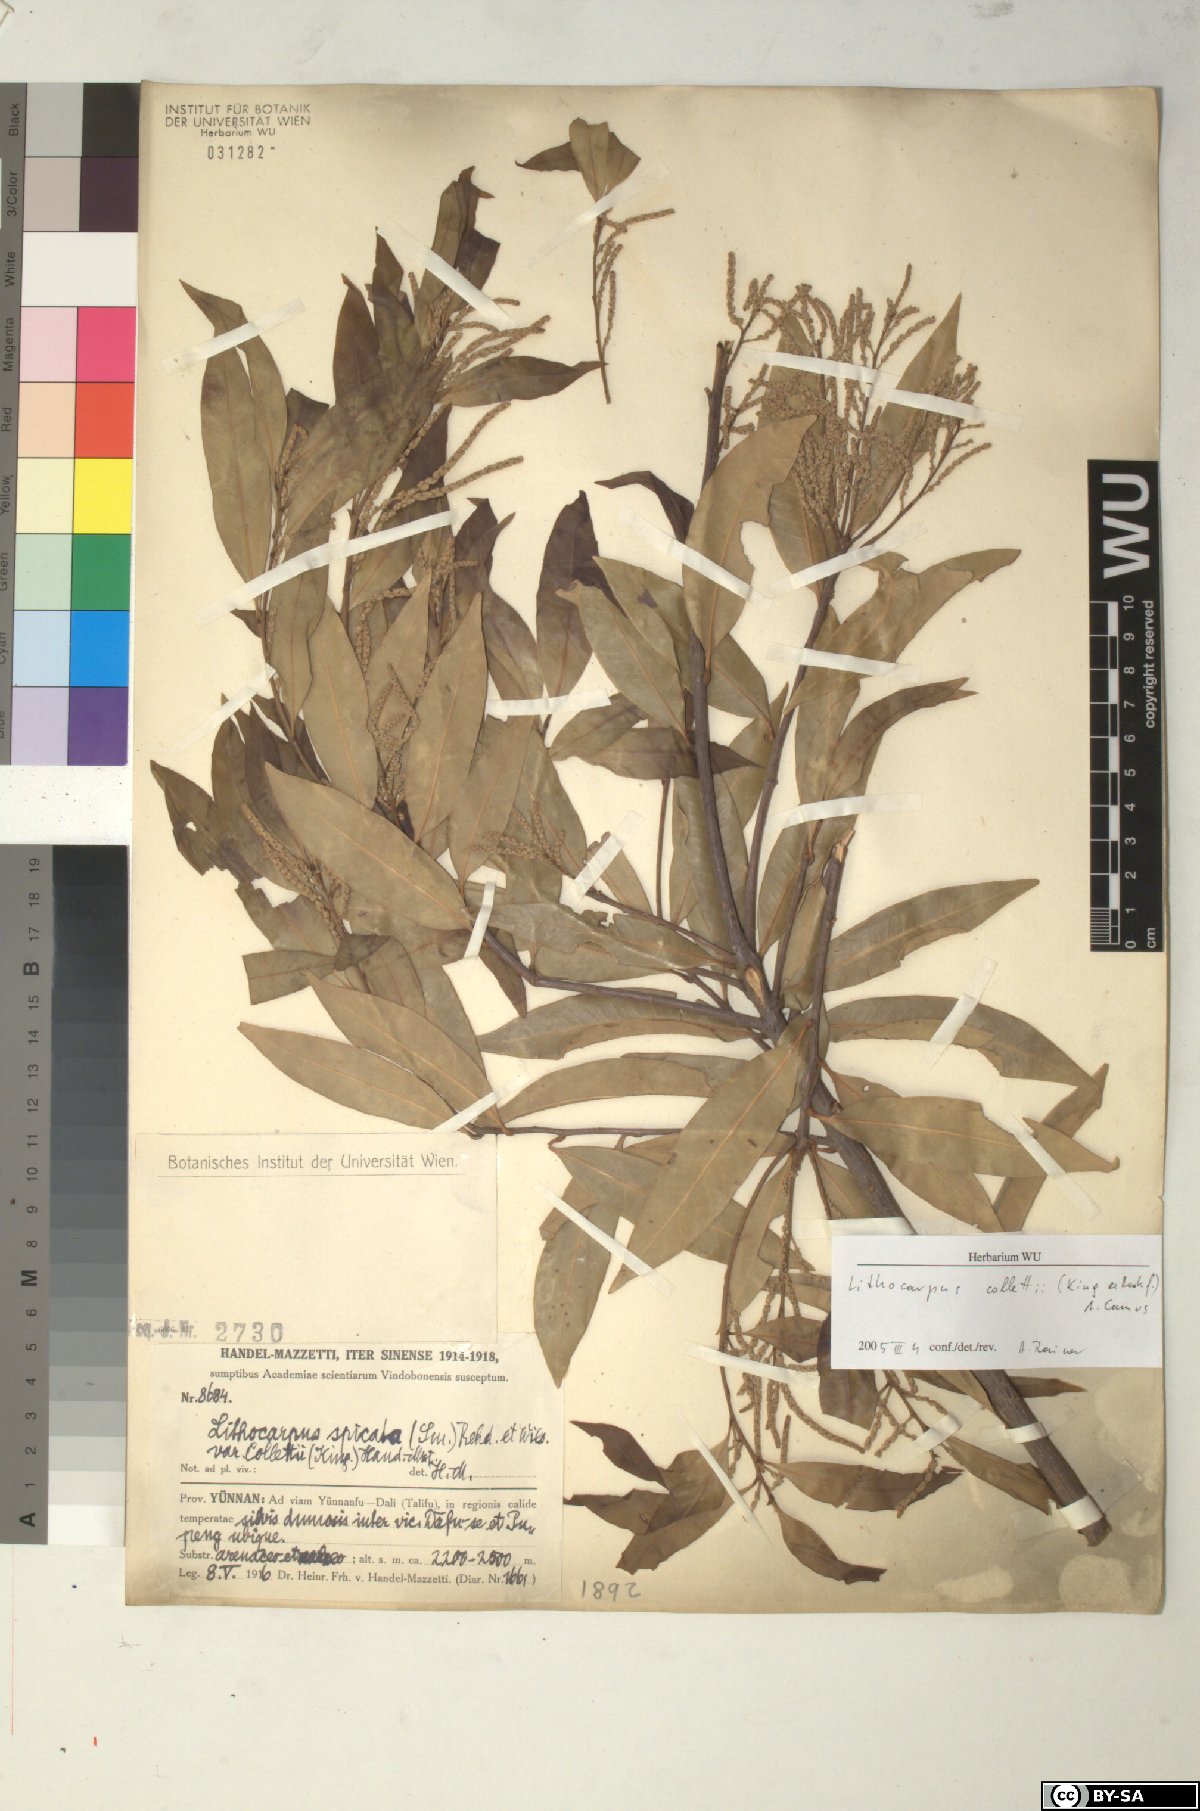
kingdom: Plantae
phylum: Tracheophyta
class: Magnoliopsida
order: Fagales
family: Fagaceae
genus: Lithocarpus
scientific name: Lithocarpus elegans
